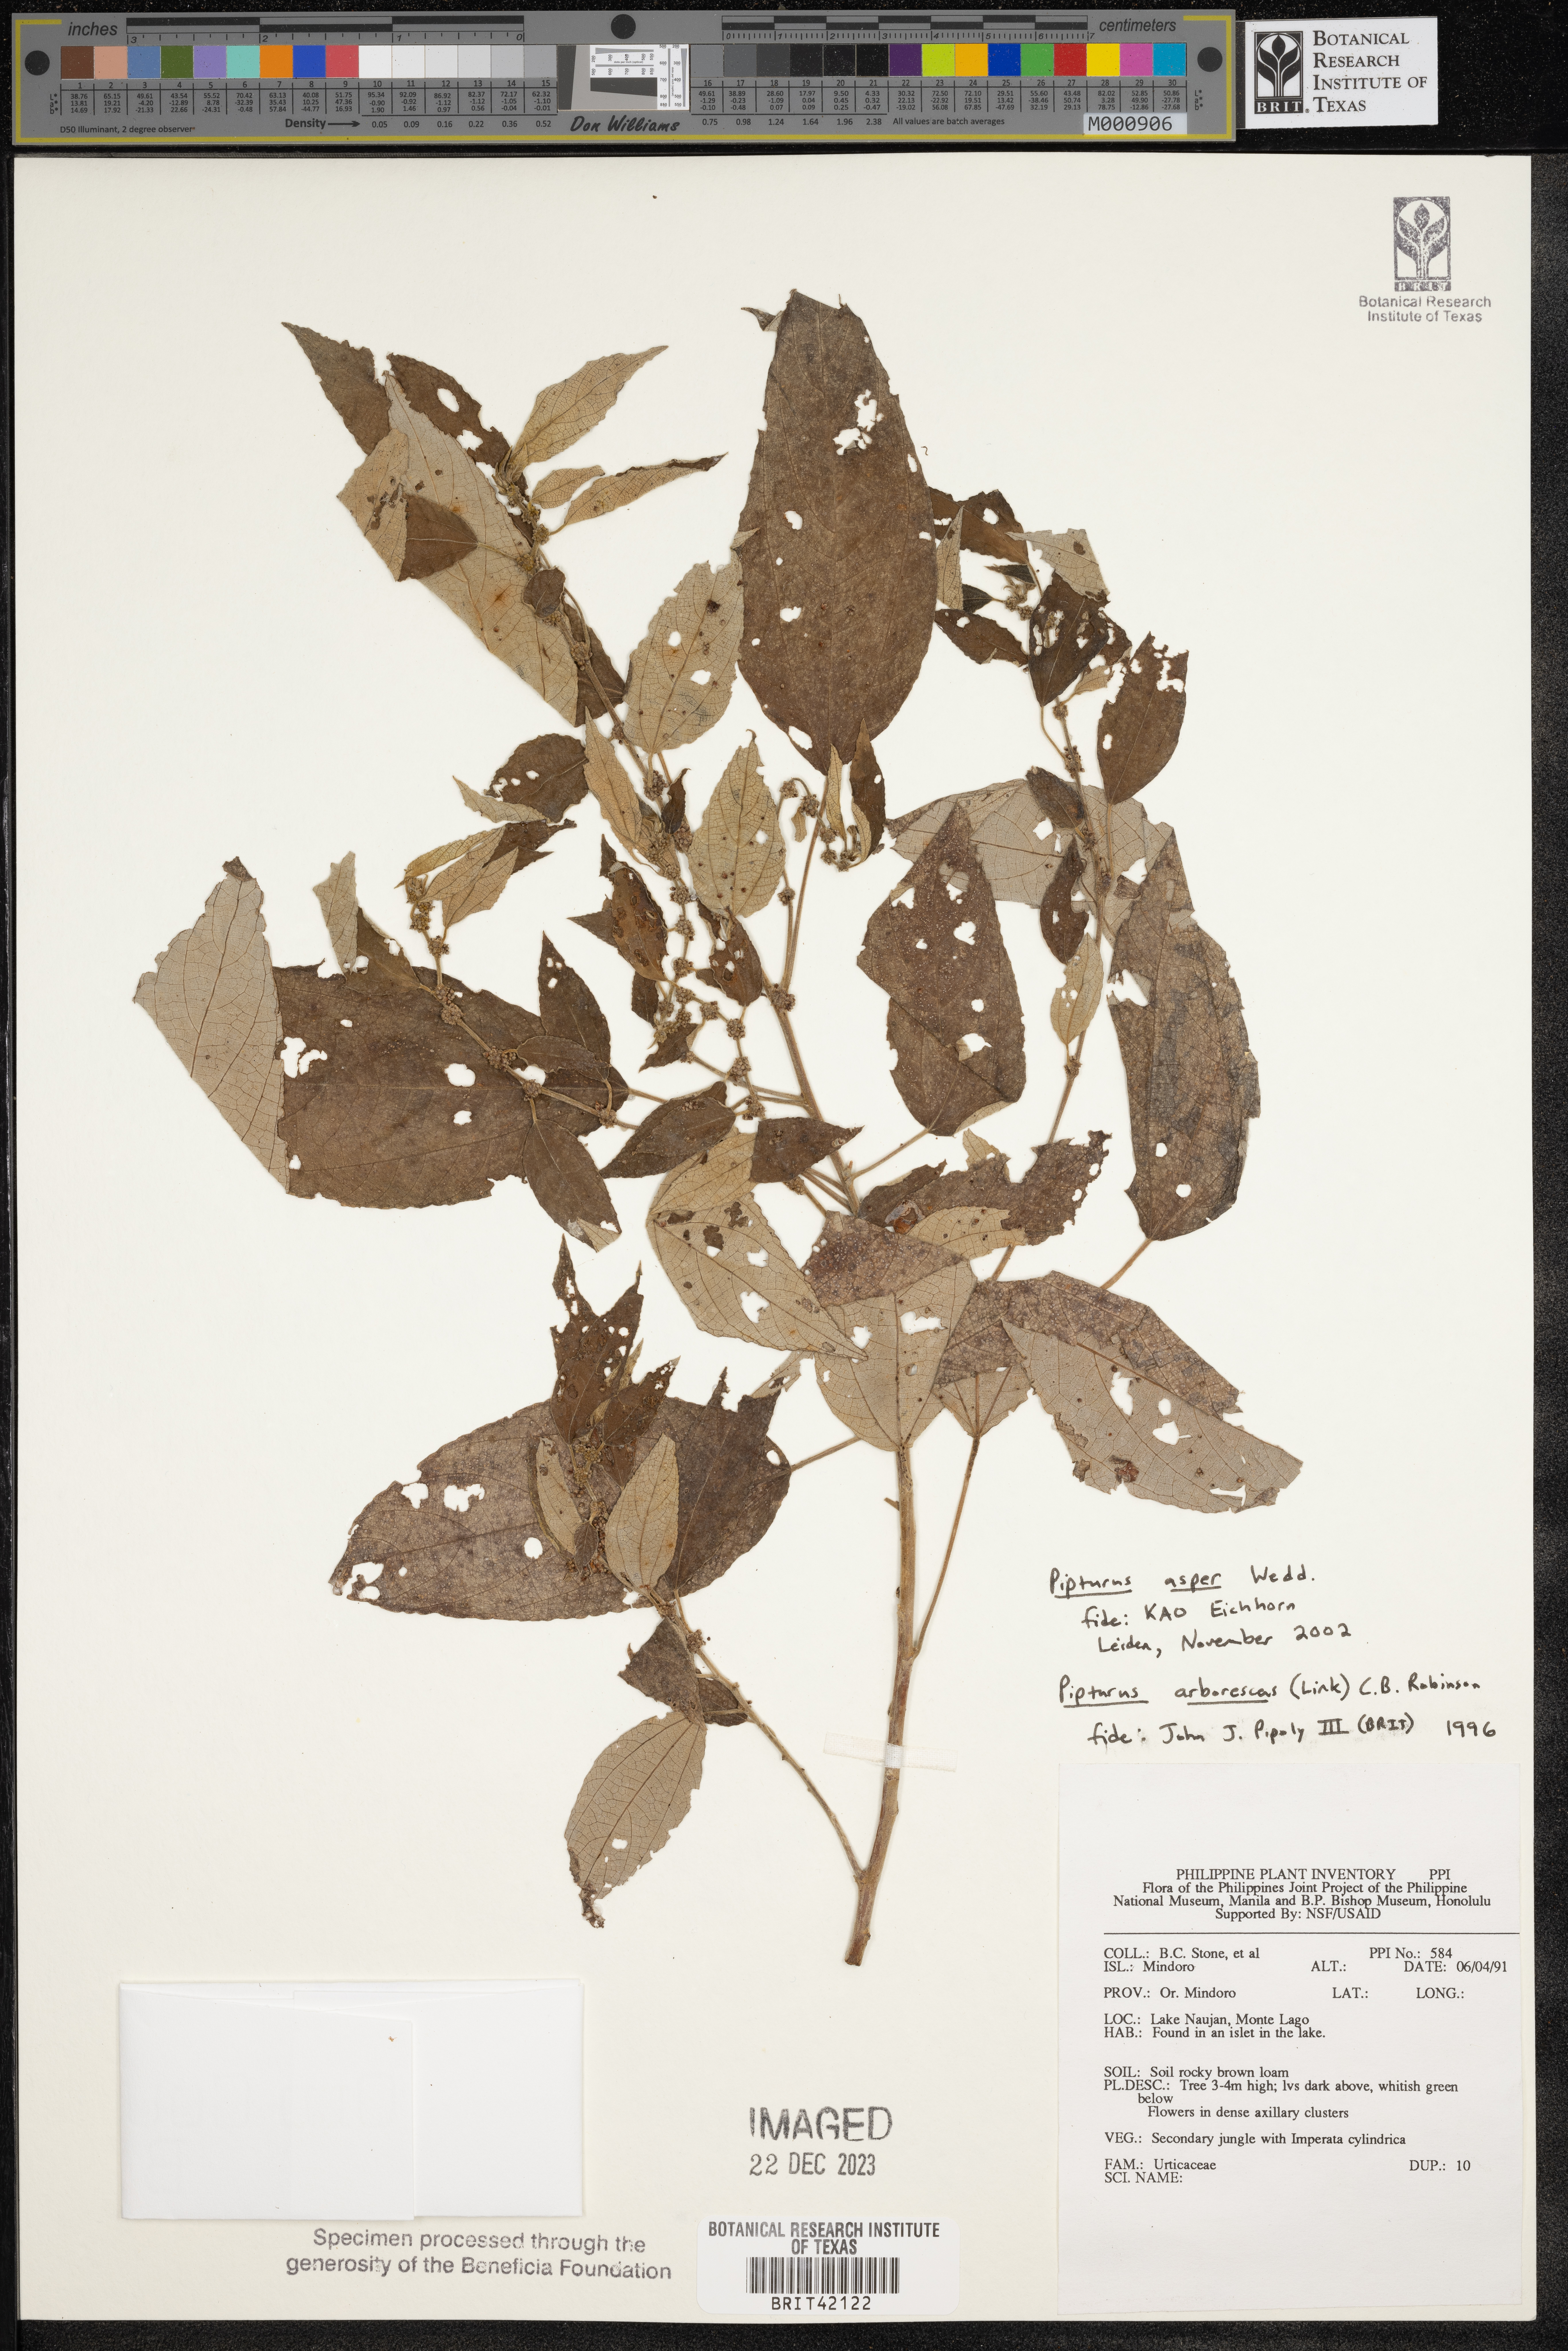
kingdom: Plantae
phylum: Tracheophyta
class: Magnoliopsida
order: Rosales
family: Urticaceae
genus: Pipturus
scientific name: Pipturus arborescens
